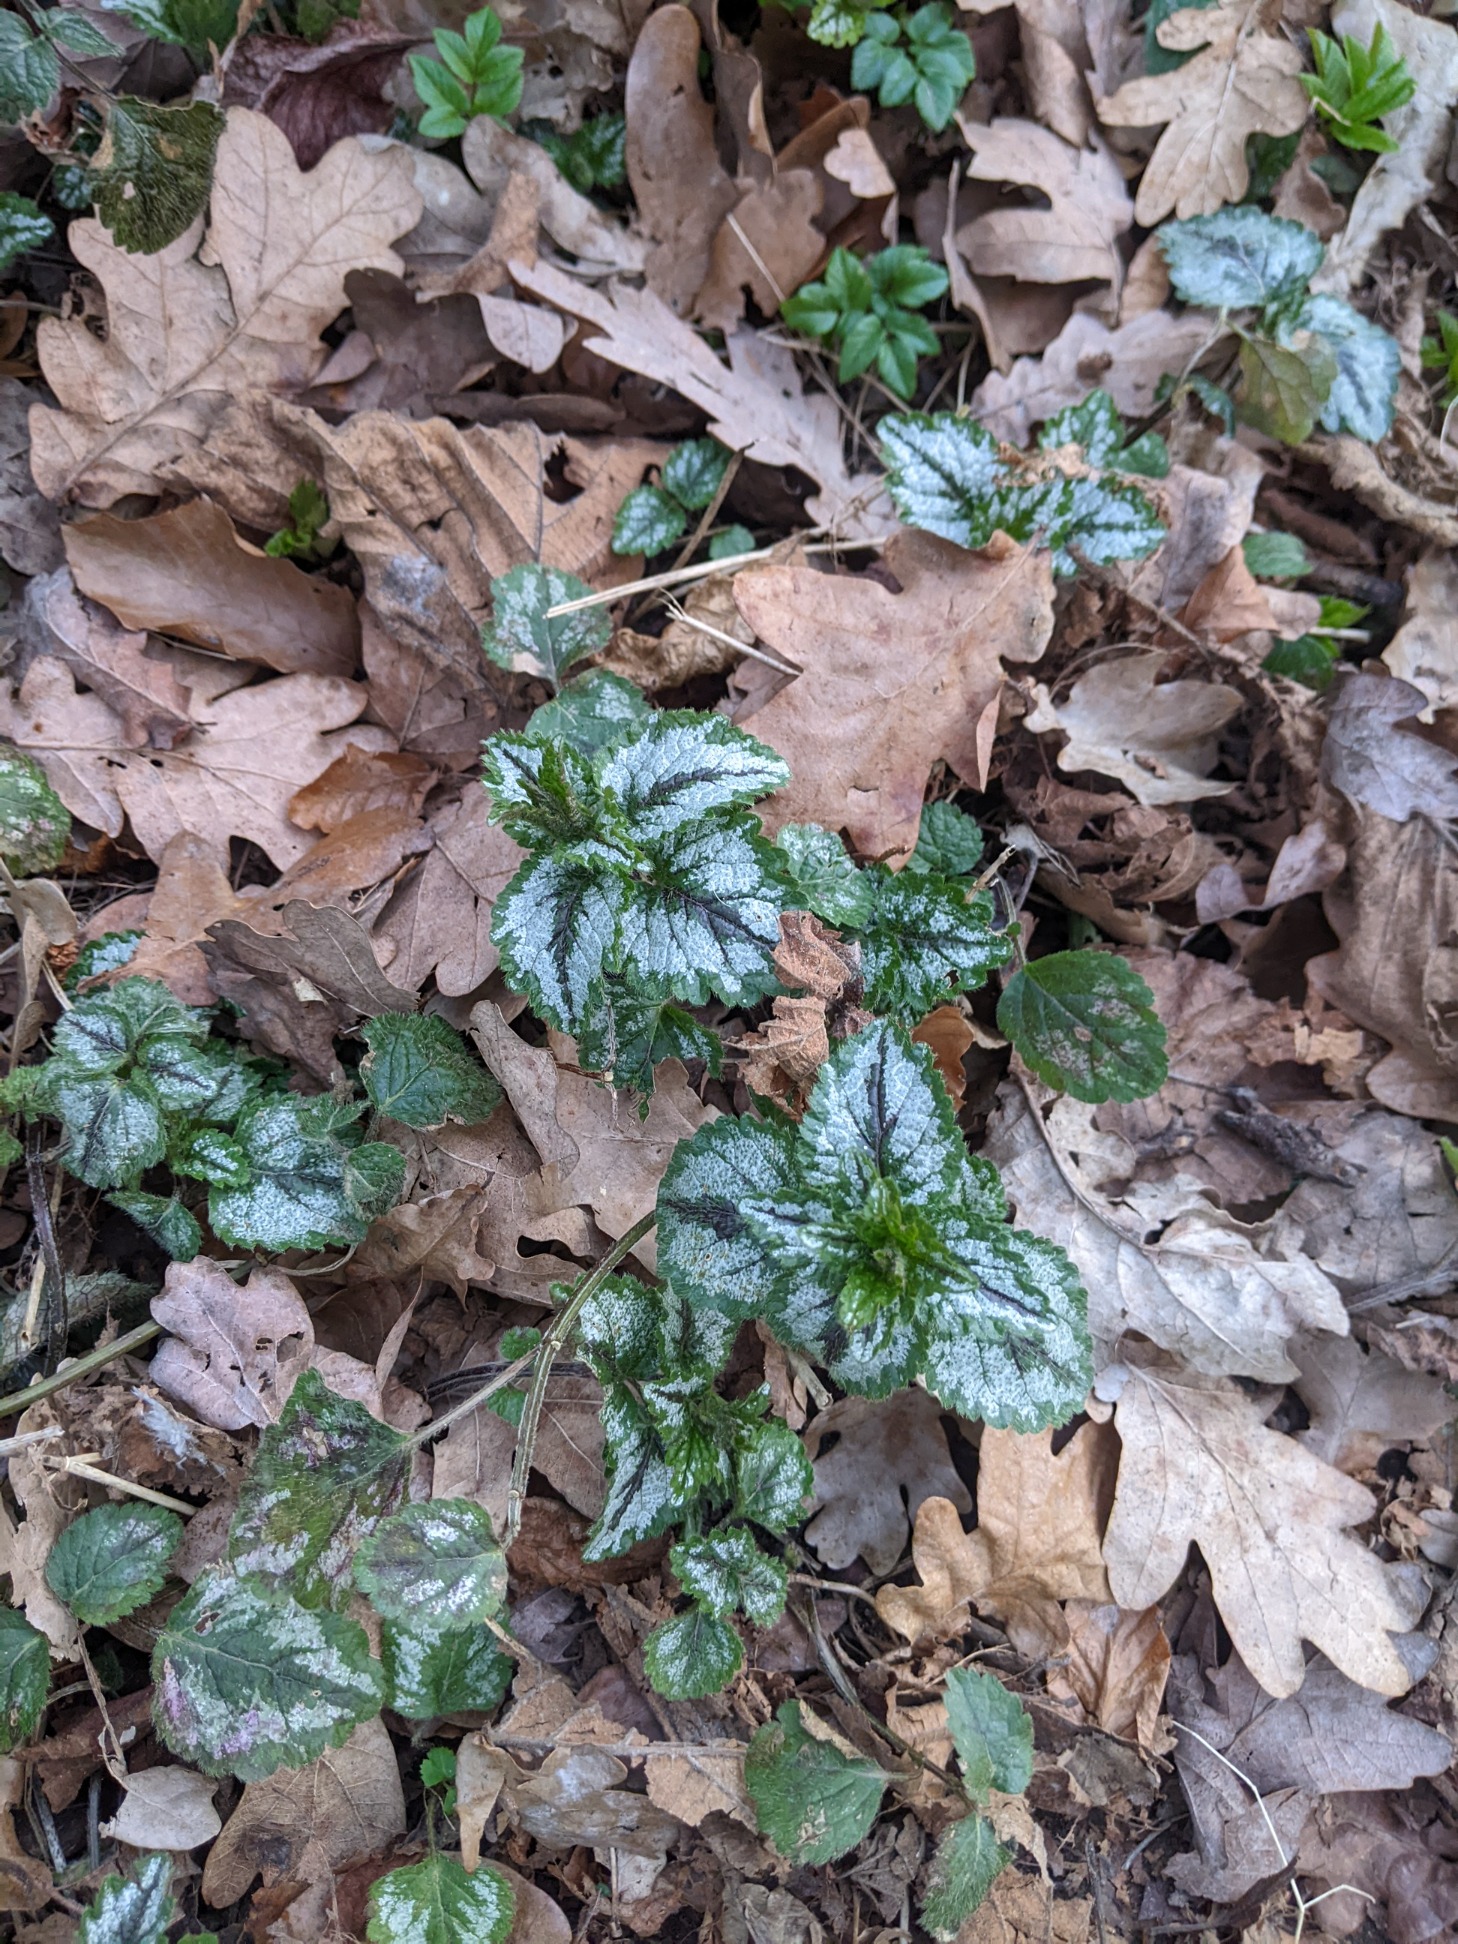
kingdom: Plantae
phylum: Tracheophyta
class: Magnoliopsida
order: Lamiales
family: Lamiaceae
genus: Lamium
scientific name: Lamium galeobdolon
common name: Have-guldnælde
